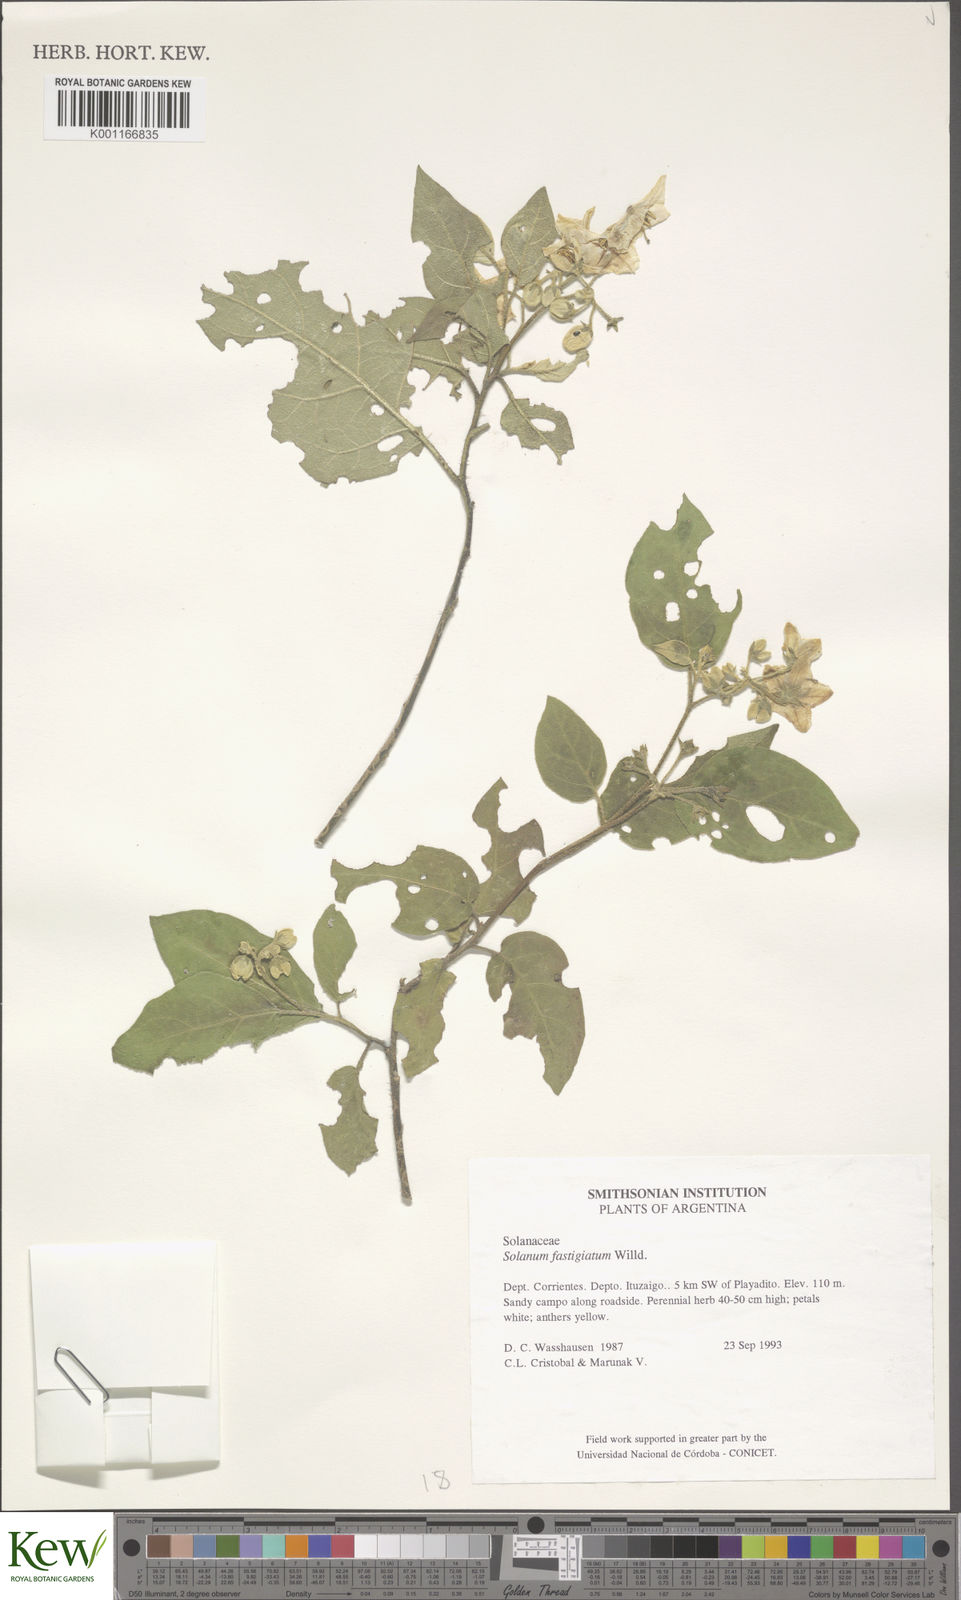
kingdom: Plantae
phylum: Tracheophyta
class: Magnoliopsida
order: Solanales
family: Solanaceae
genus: Solanum
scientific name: Solanum bonariense
